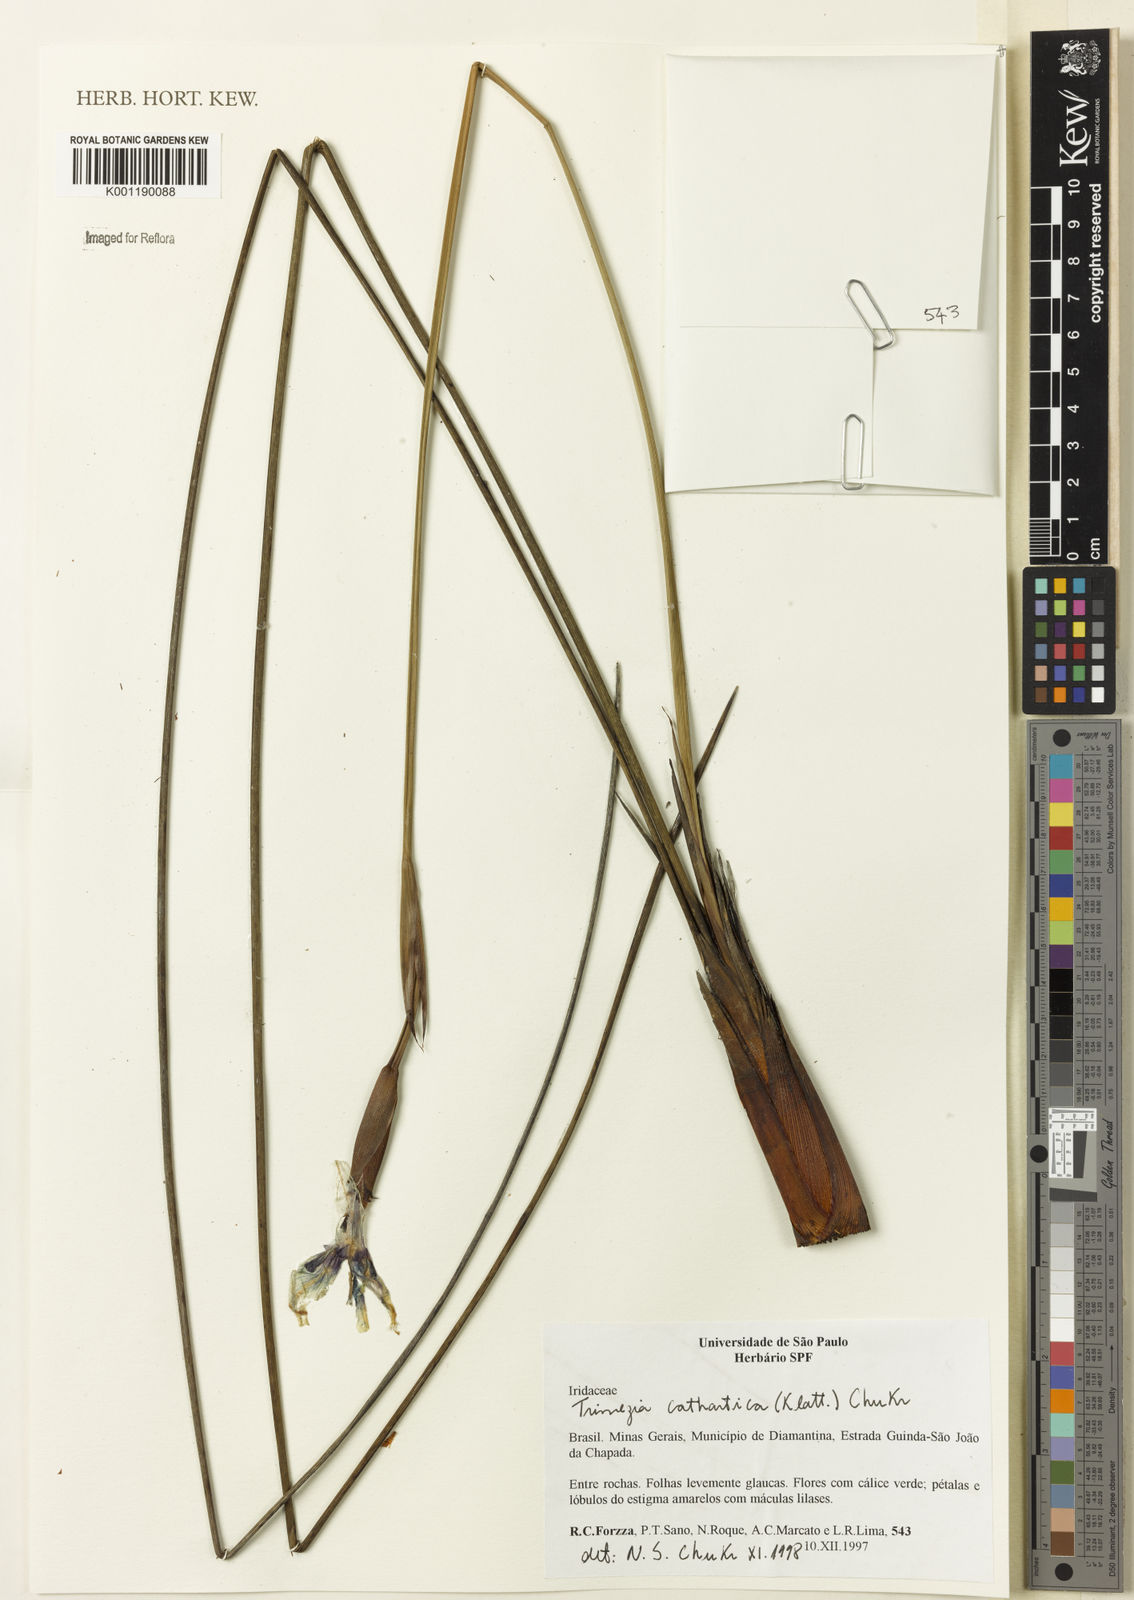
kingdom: Plantae
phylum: Tracheophyta
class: Liliopsida
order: Asparagales
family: Iridaceae
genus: Trimezia
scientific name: Trimezia cathartica
